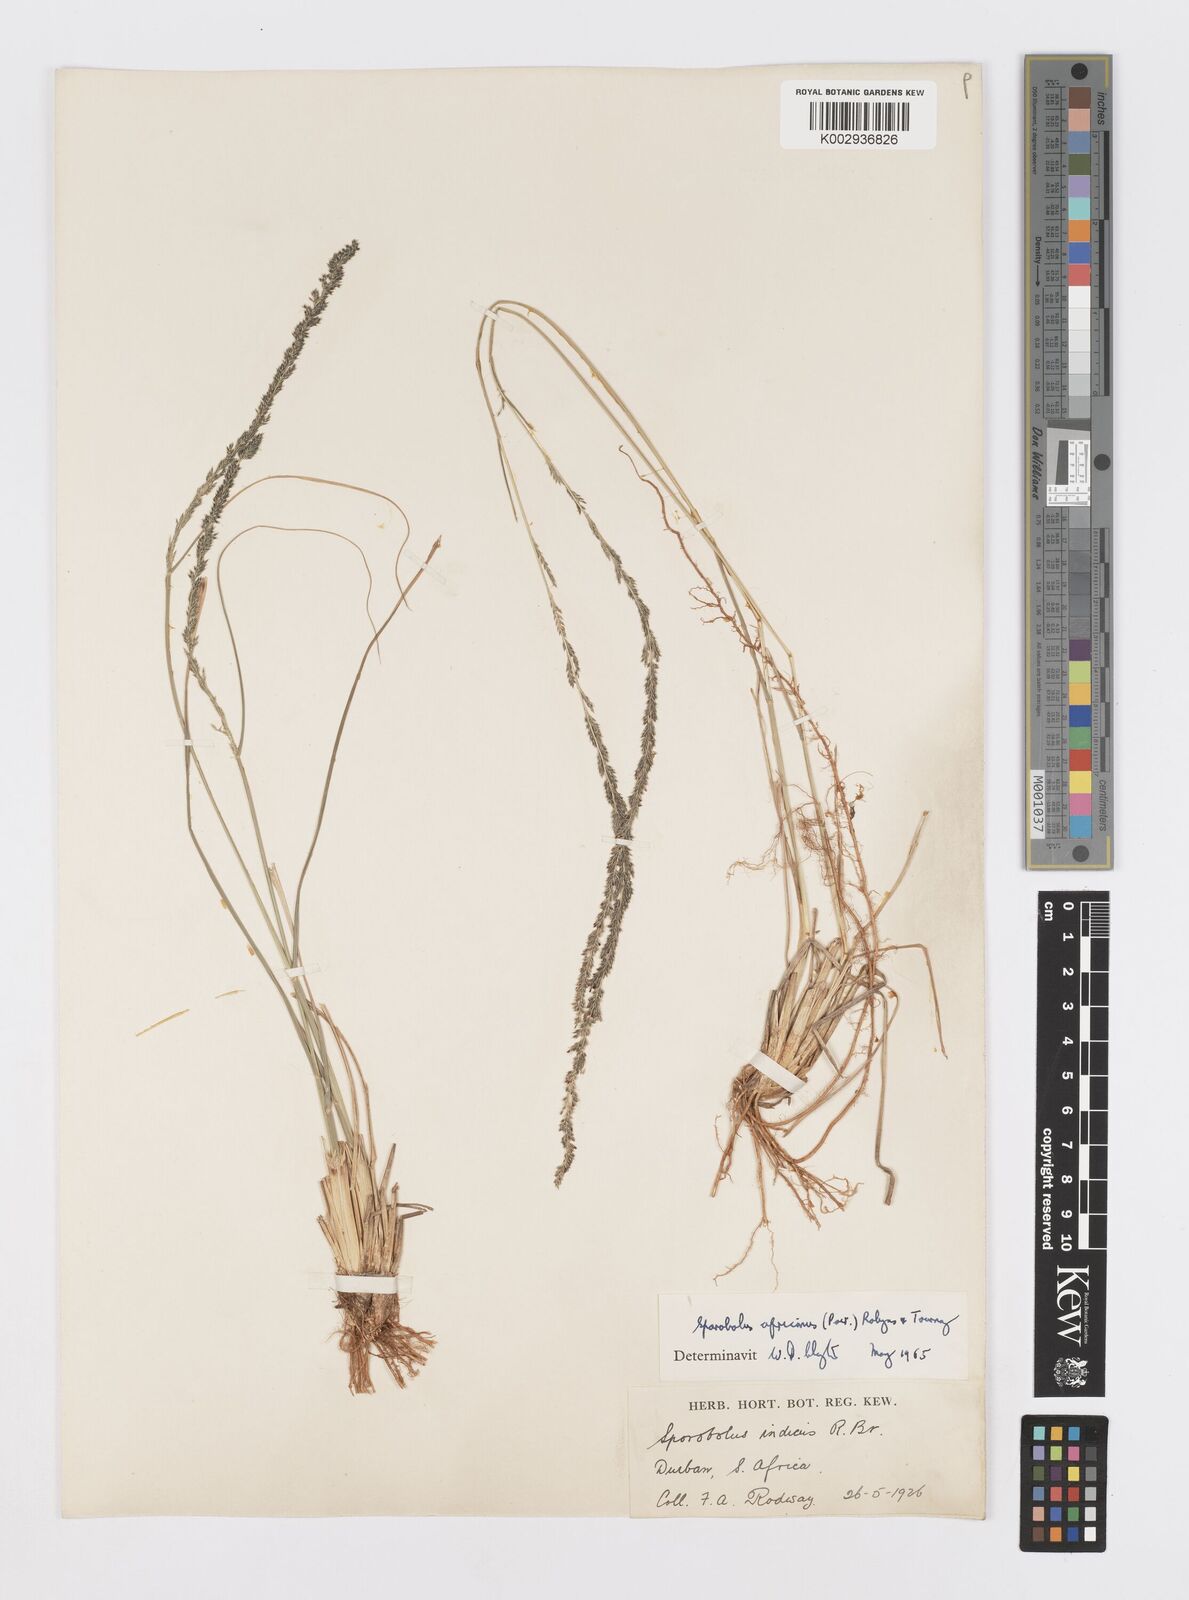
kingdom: Plantae
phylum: Tracheophyta
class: Liliopsida
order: Poales
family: Poaceae
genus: Sporobolus
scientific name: Sporobolus africanus
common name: African dropseed
